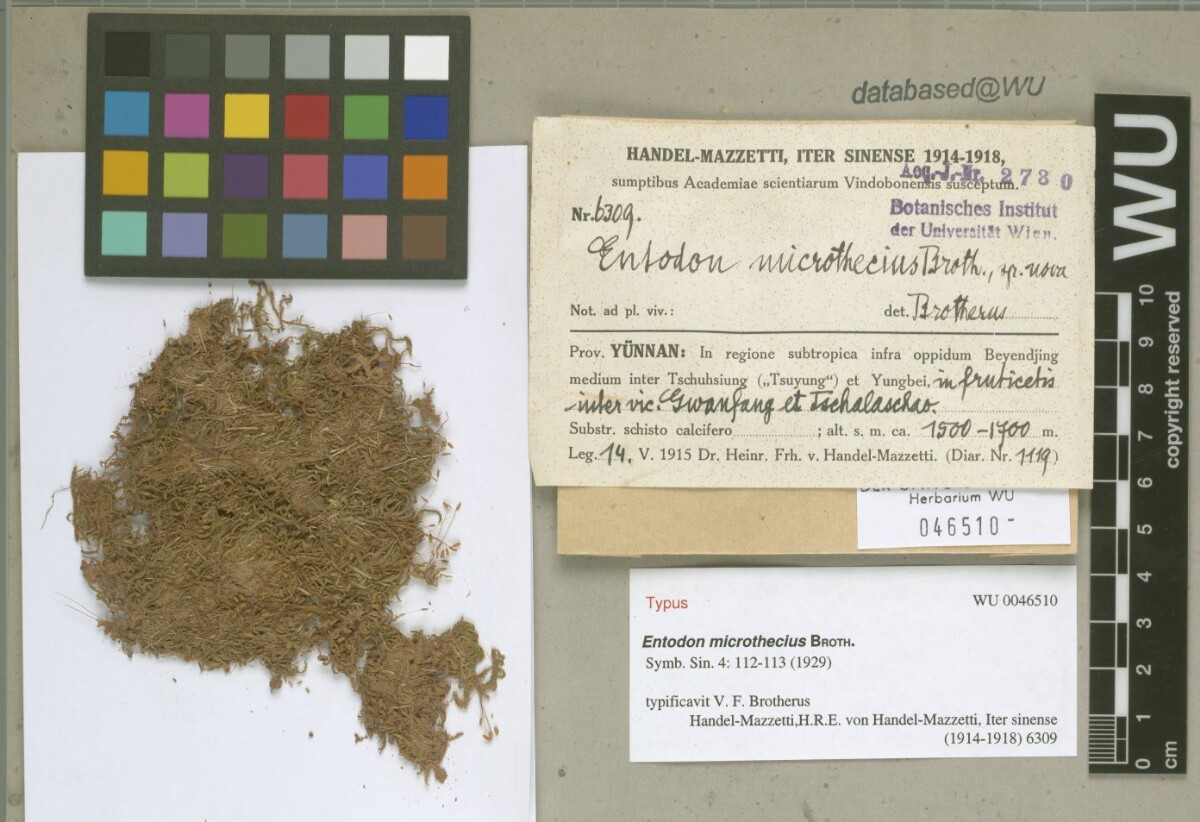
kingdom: Plantae
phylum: Bryophyta
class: Bryopsida
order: Hypnales
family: Entodontaceae
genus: Entodon
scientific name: Entodon challengeri
